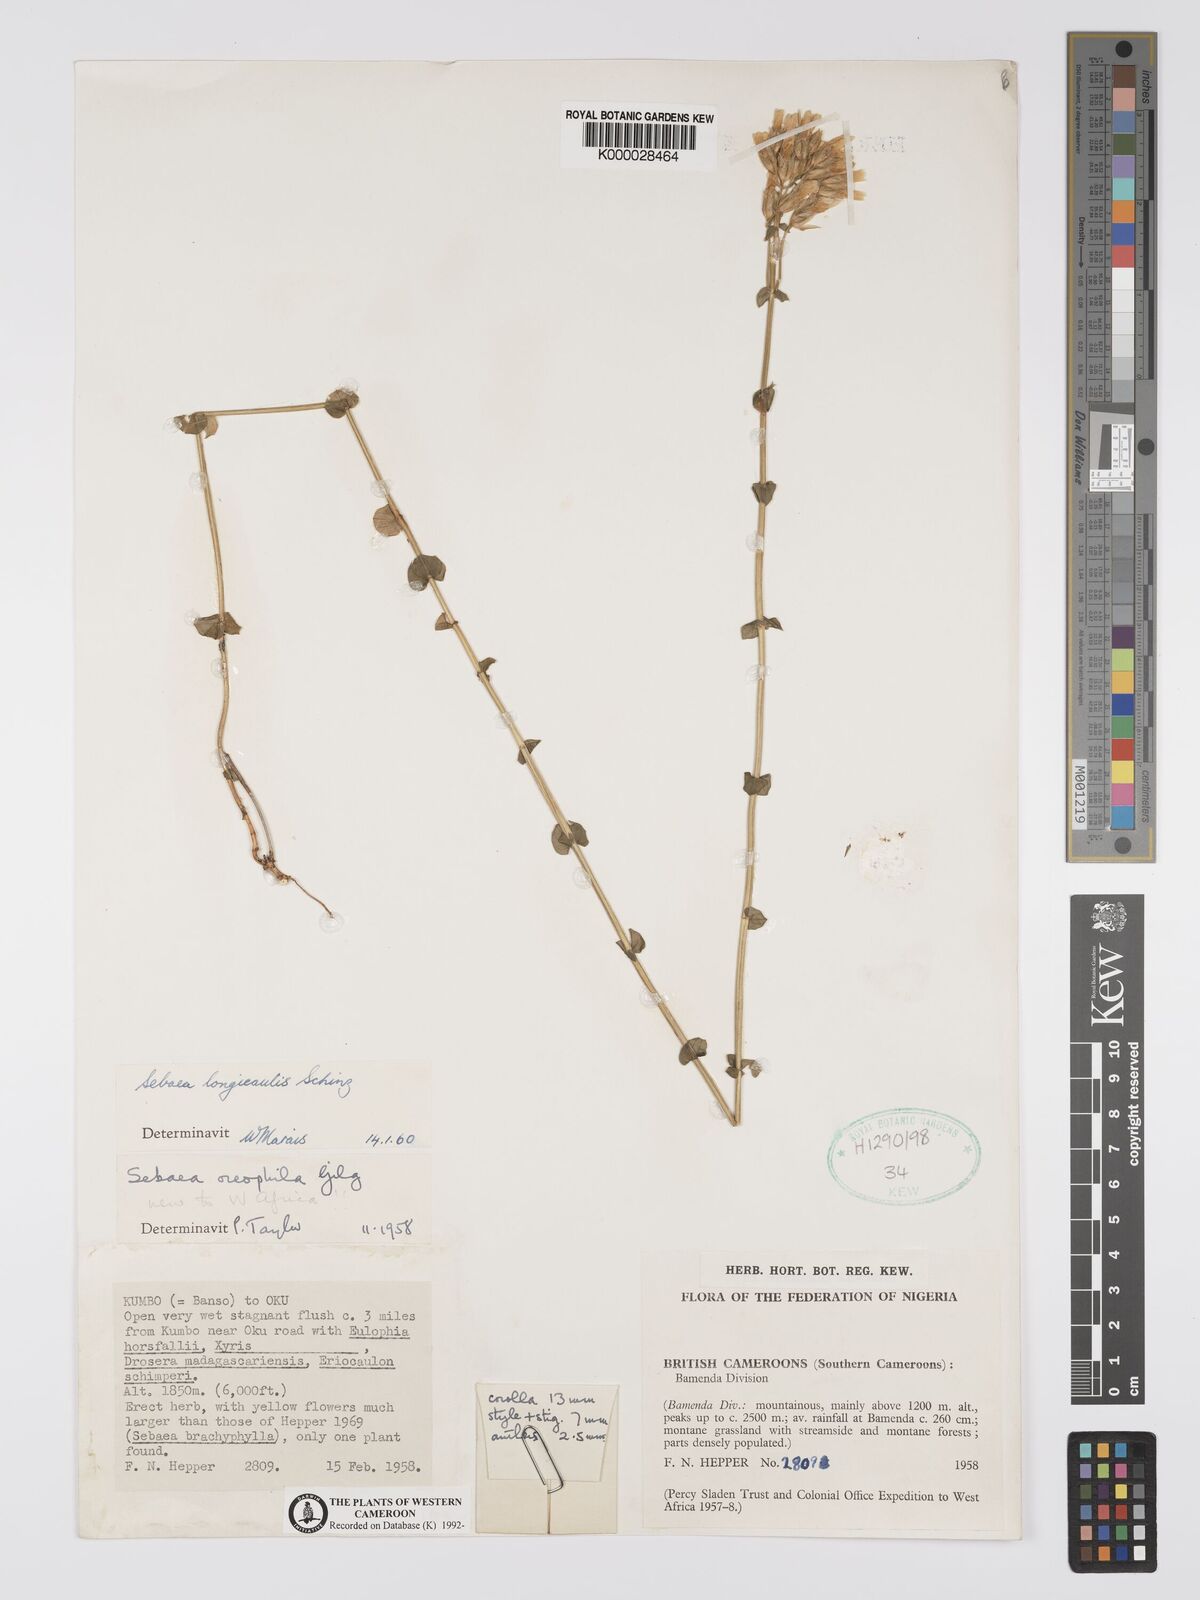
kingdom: Plantae
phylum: Tracheophyta
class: Magnoliopsida
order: Gentianales
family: Gentianaceae
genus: Sebaea
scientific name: Sebaea longicaulis
